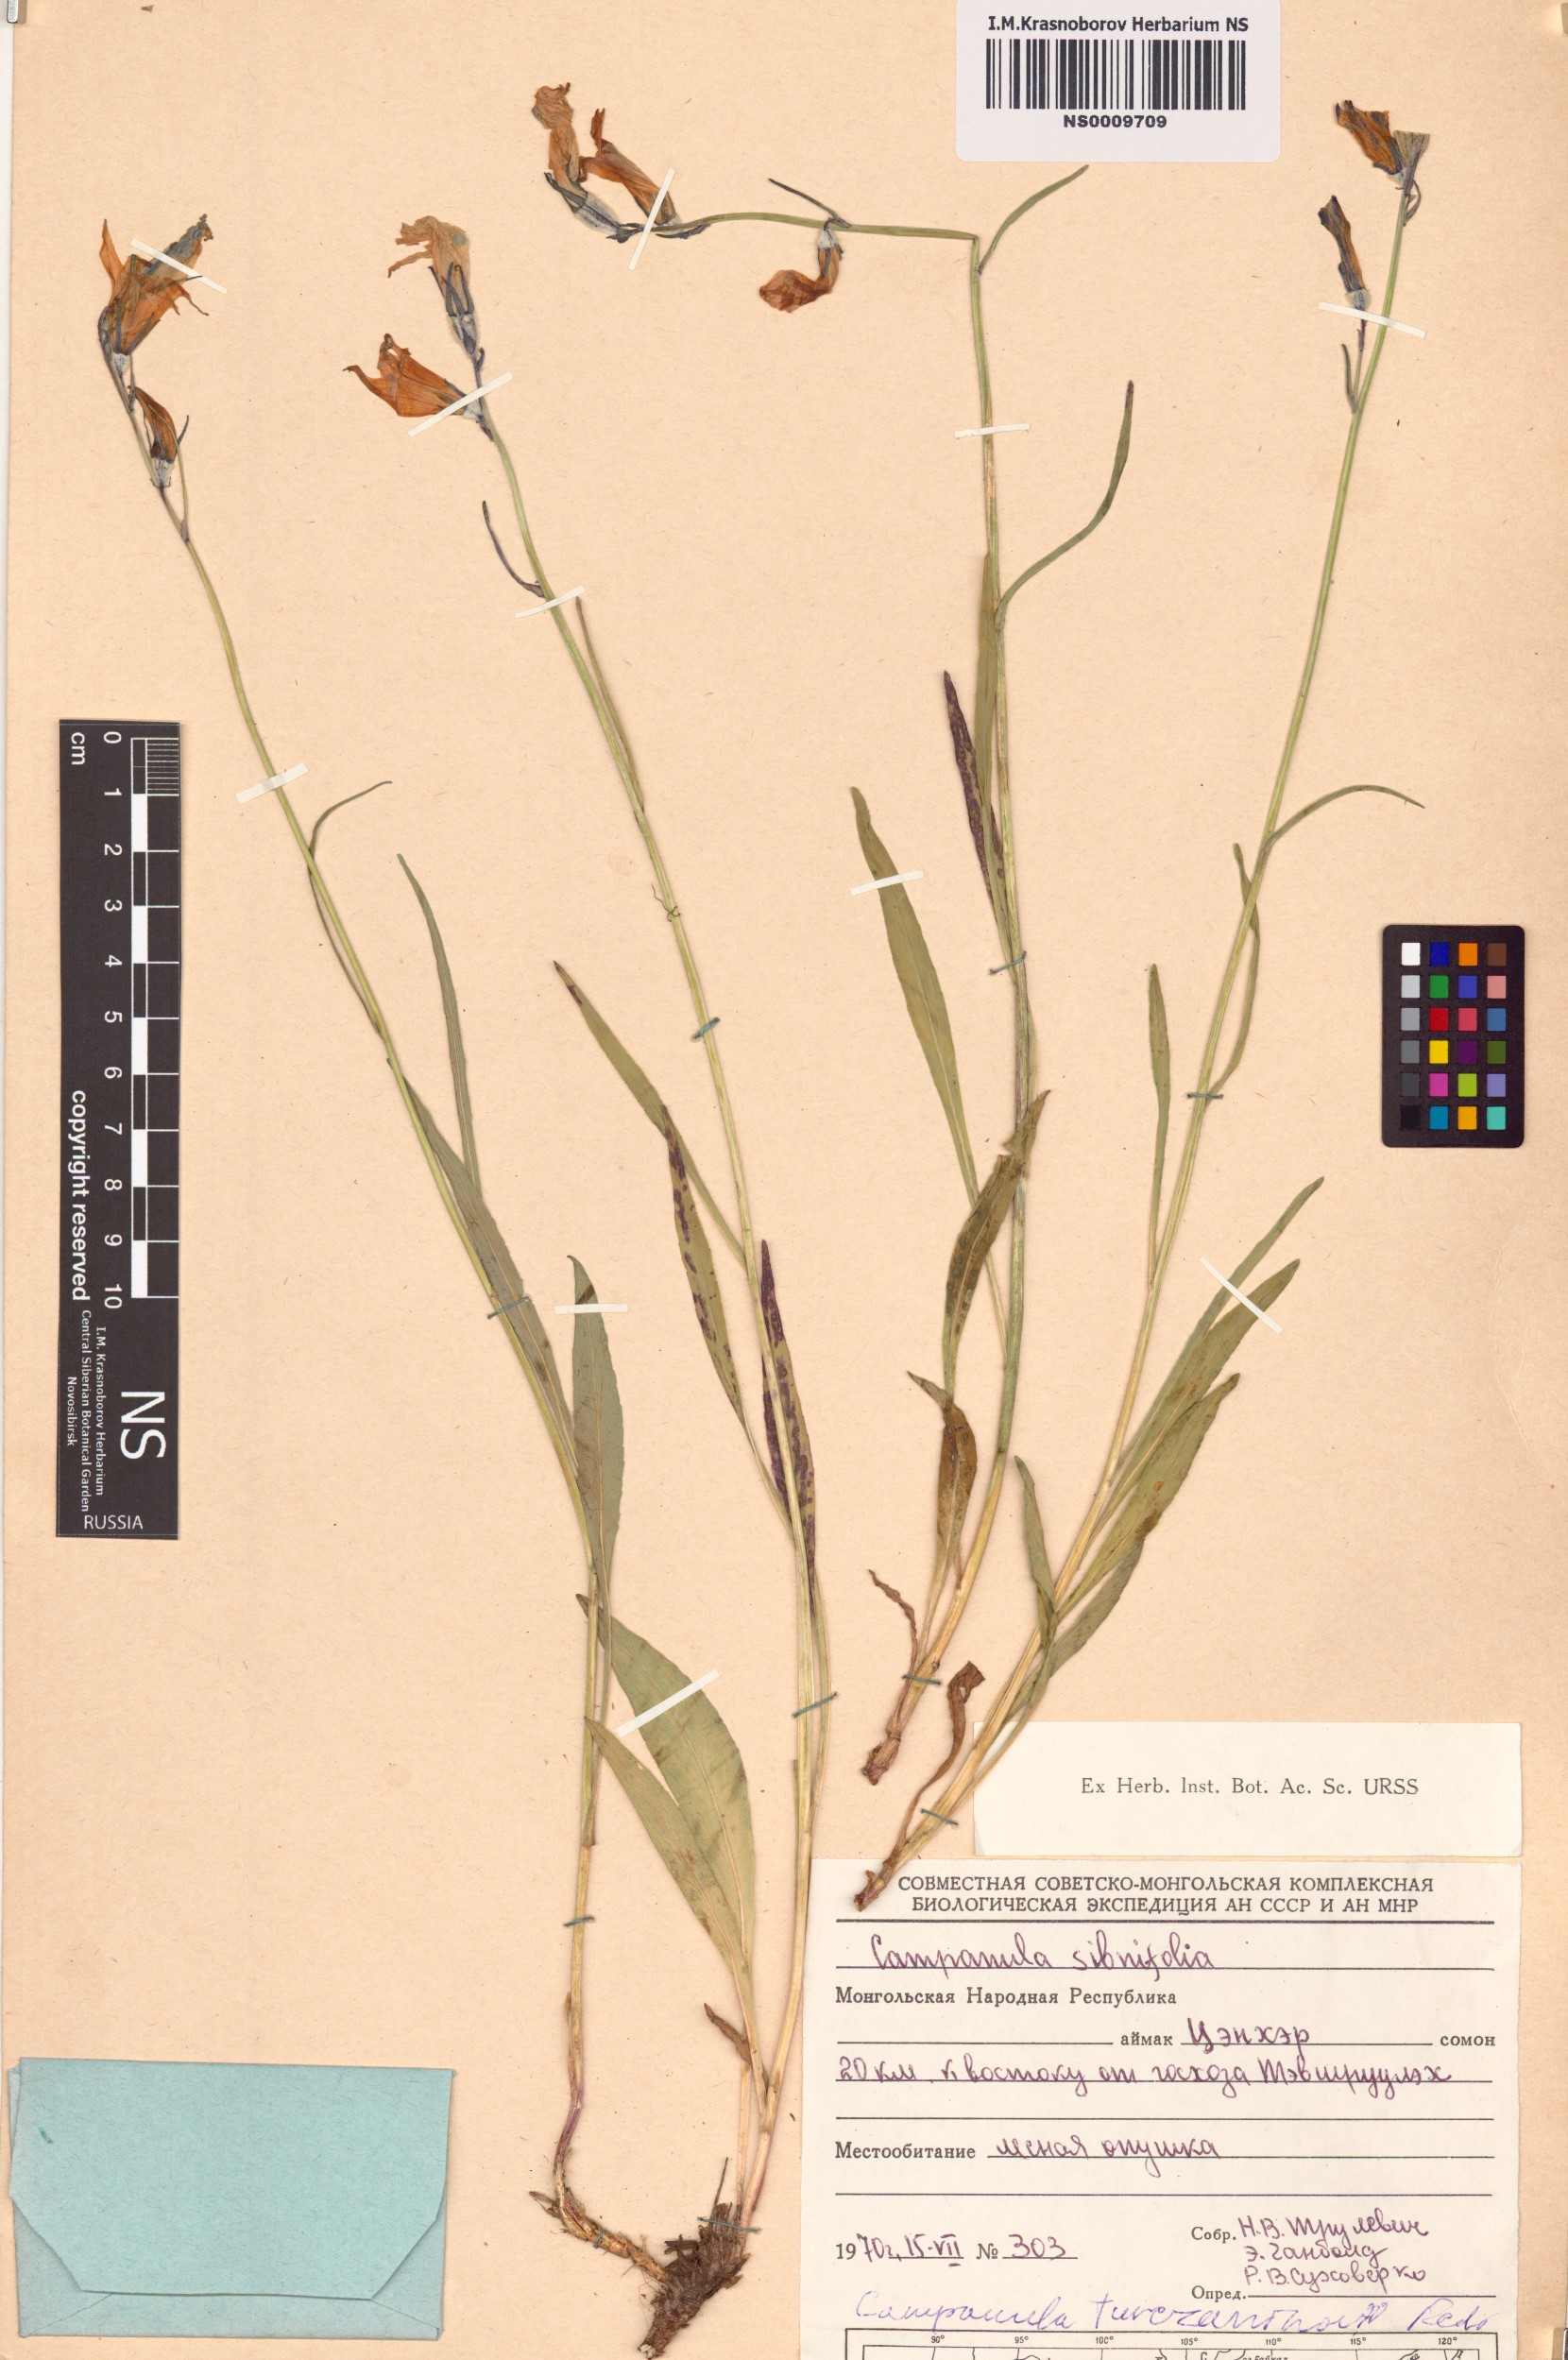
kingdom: Plantae
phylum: Tracheophyta
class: Magnoliopsida
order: Asterales
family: Campanulaceae
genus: Campanula
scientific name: Campanula stevenii
